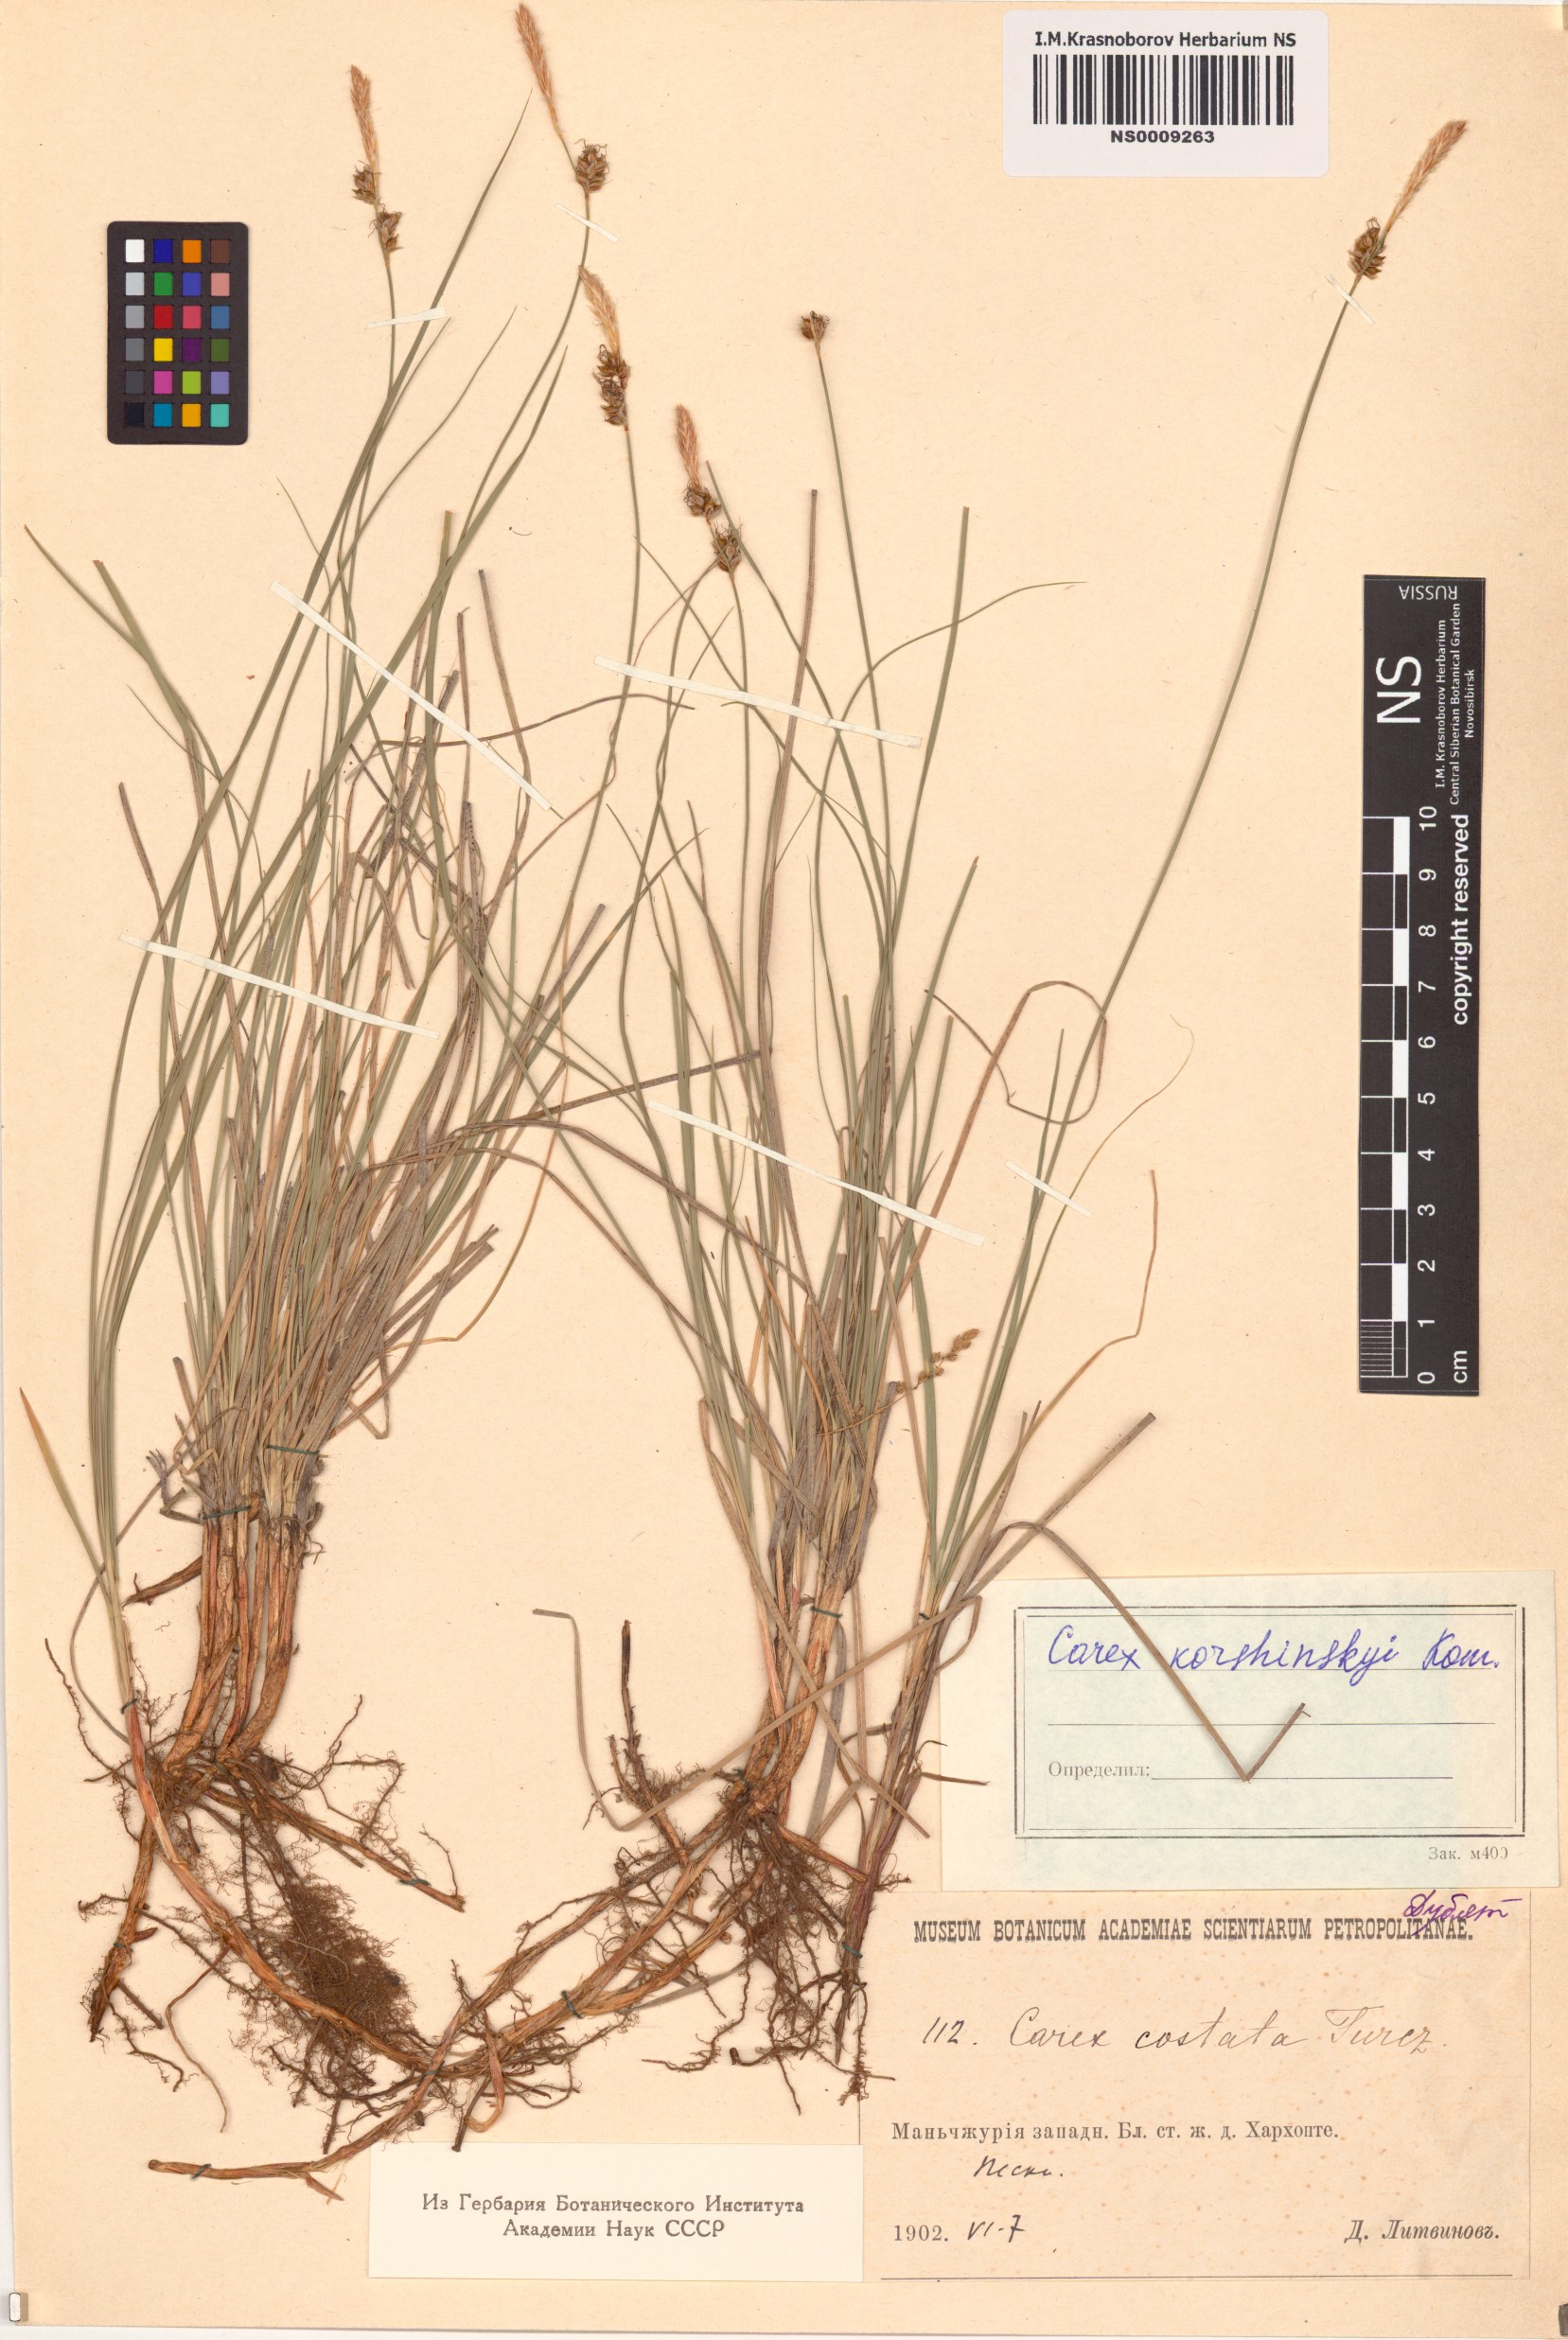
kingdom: Plantae
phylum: Tracheophyta
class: Liliopsida
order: Poales
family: Cyperaceae
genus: Carex
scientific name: Carex korshinskyi
